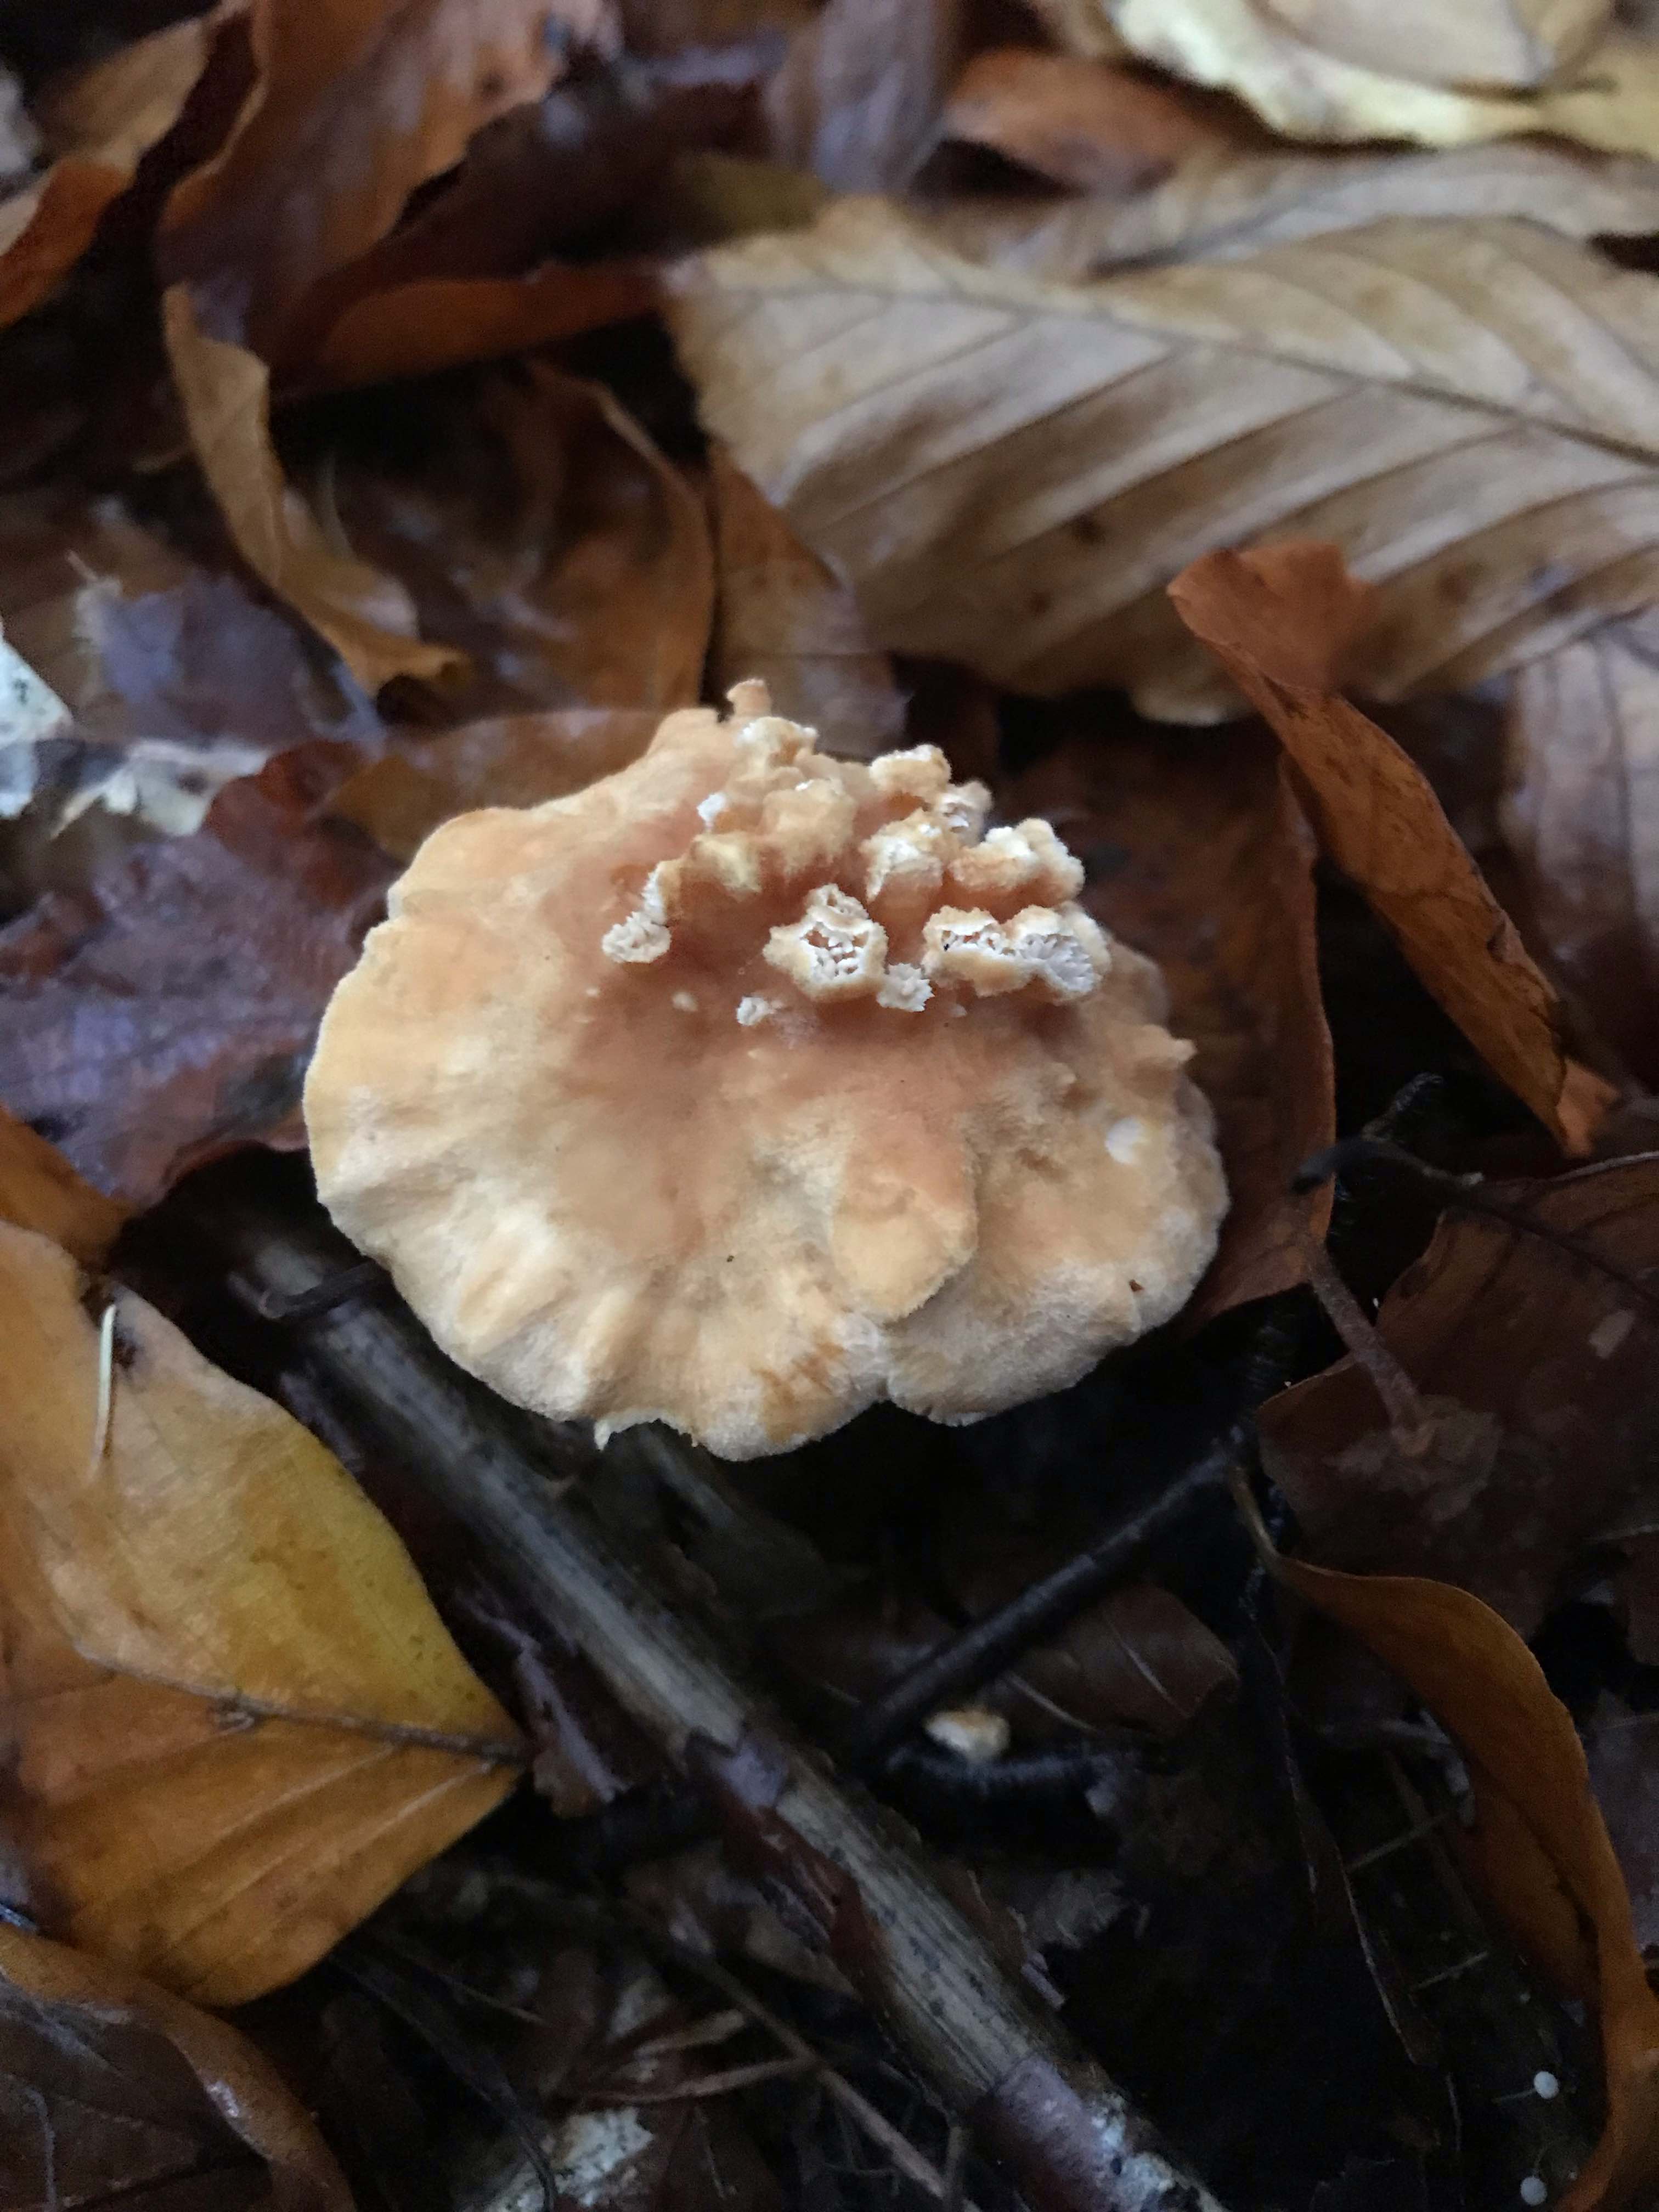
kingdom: Fungi
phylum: Basidiomycota
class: Agaricomycetes
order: Cantharellales
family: Hydnaceae
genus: Hydnum
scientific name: Hydnum
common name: pigsvamp
